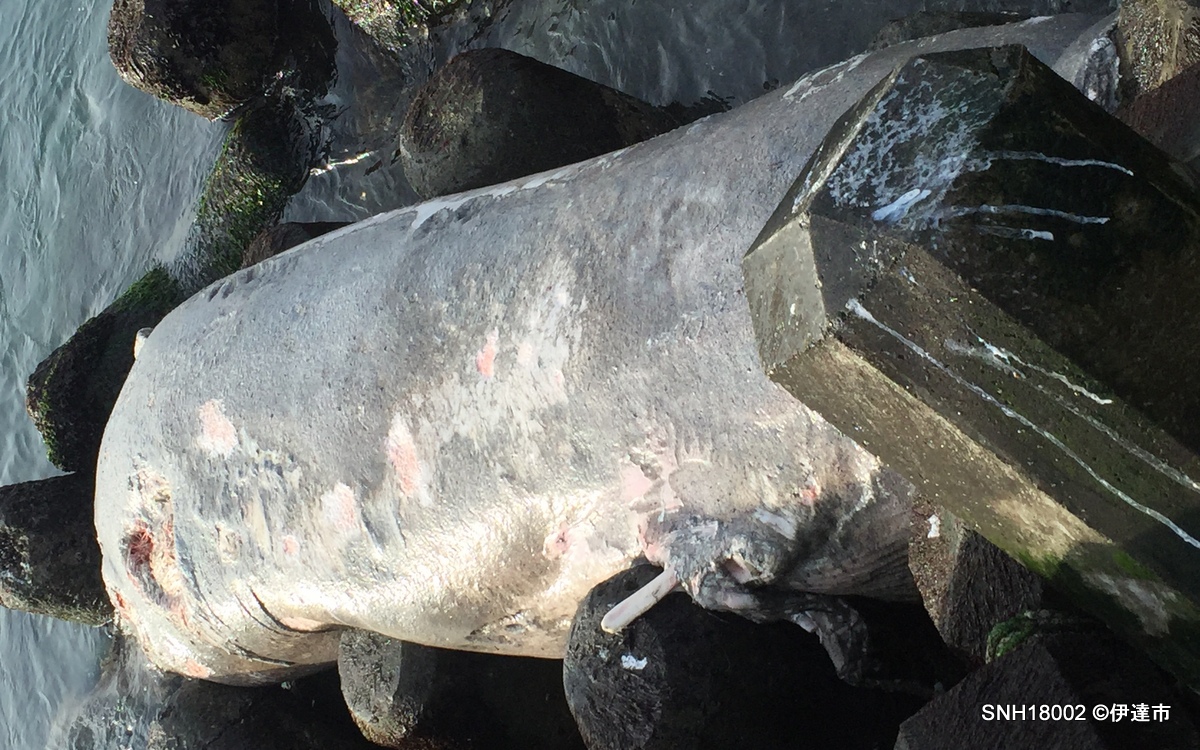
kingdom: Animalia
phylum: Chordata
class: Mammalia
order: Cetacea
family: Balaenopteridae
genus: Balaenoptera
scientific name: Balaenoptera
